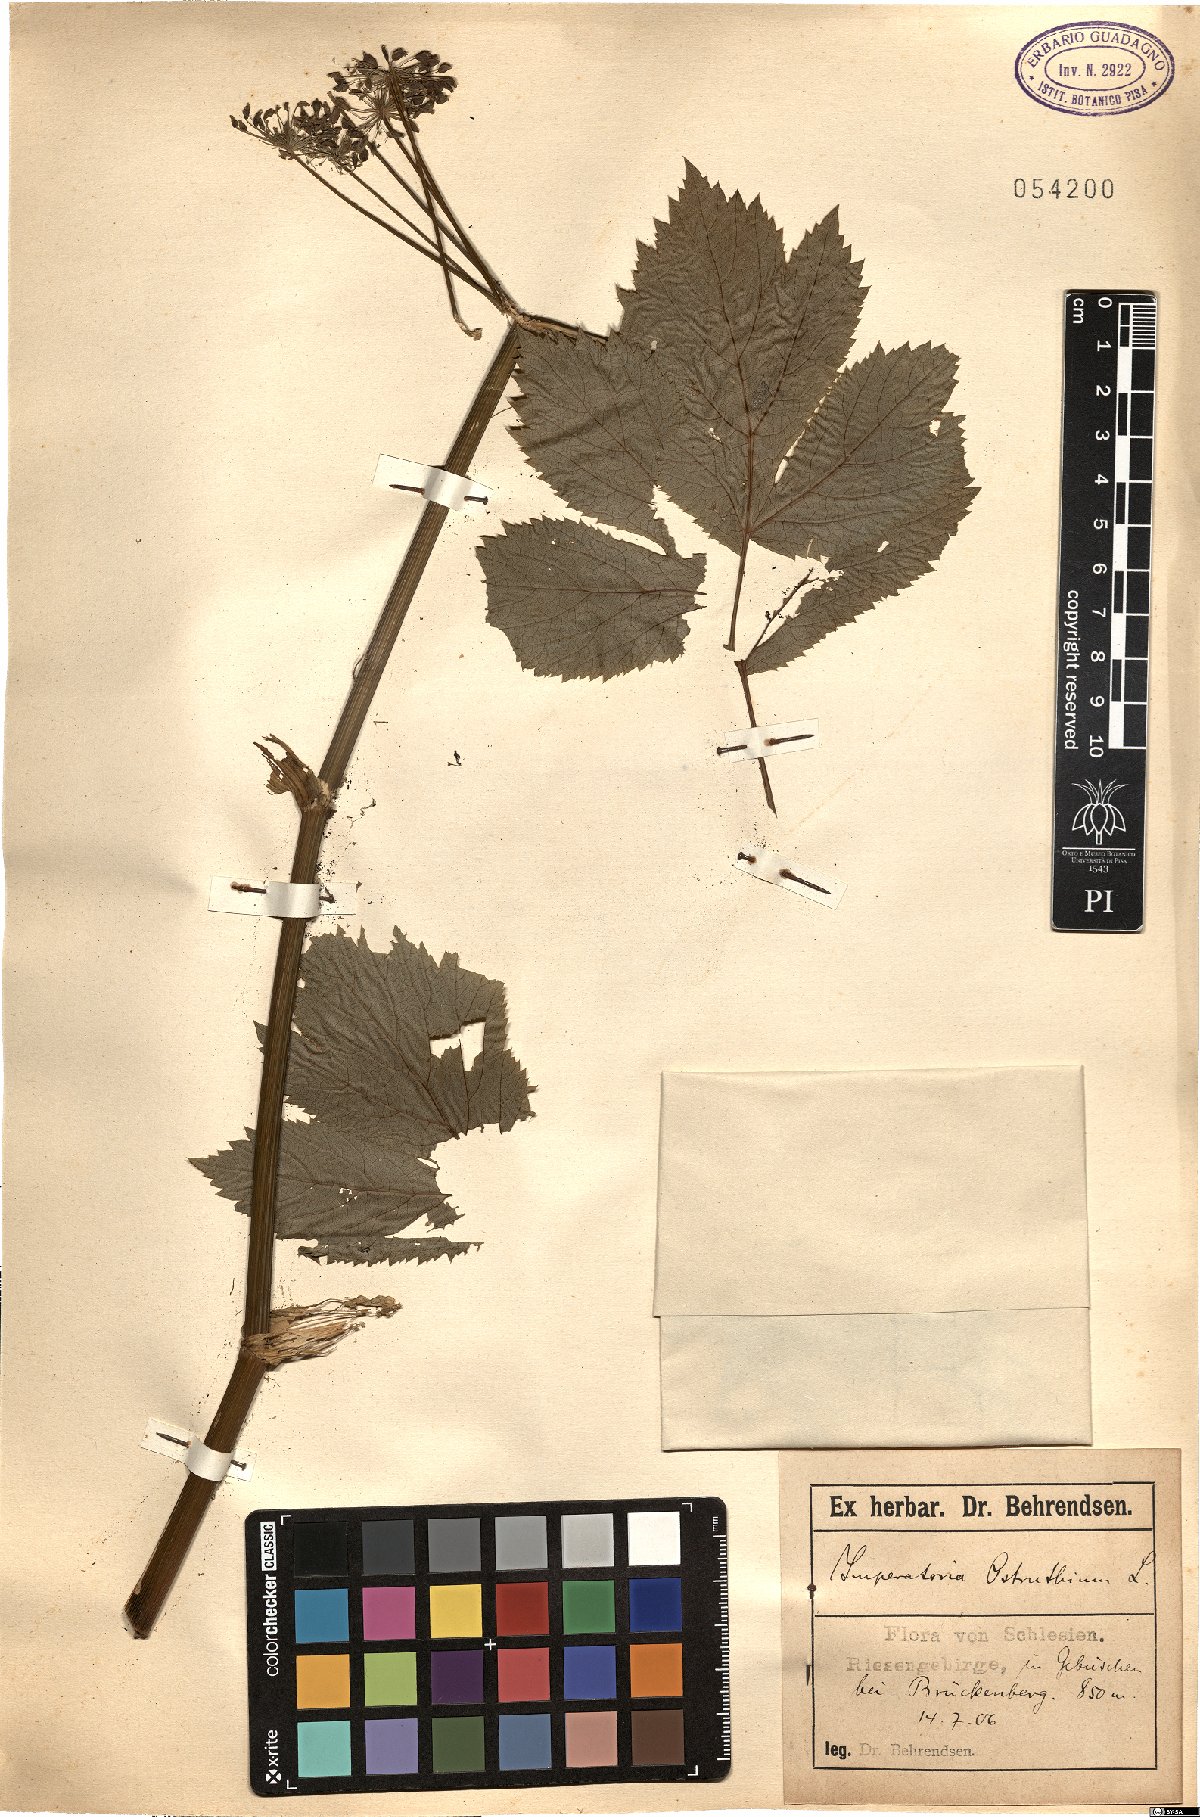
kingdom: Plantae
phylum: Tracheophyta
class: Magnoliopsida
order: Apiales
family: Apiaceae
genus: Imperatoria
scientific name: Imperatoria ostruthium
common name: Masterwort
